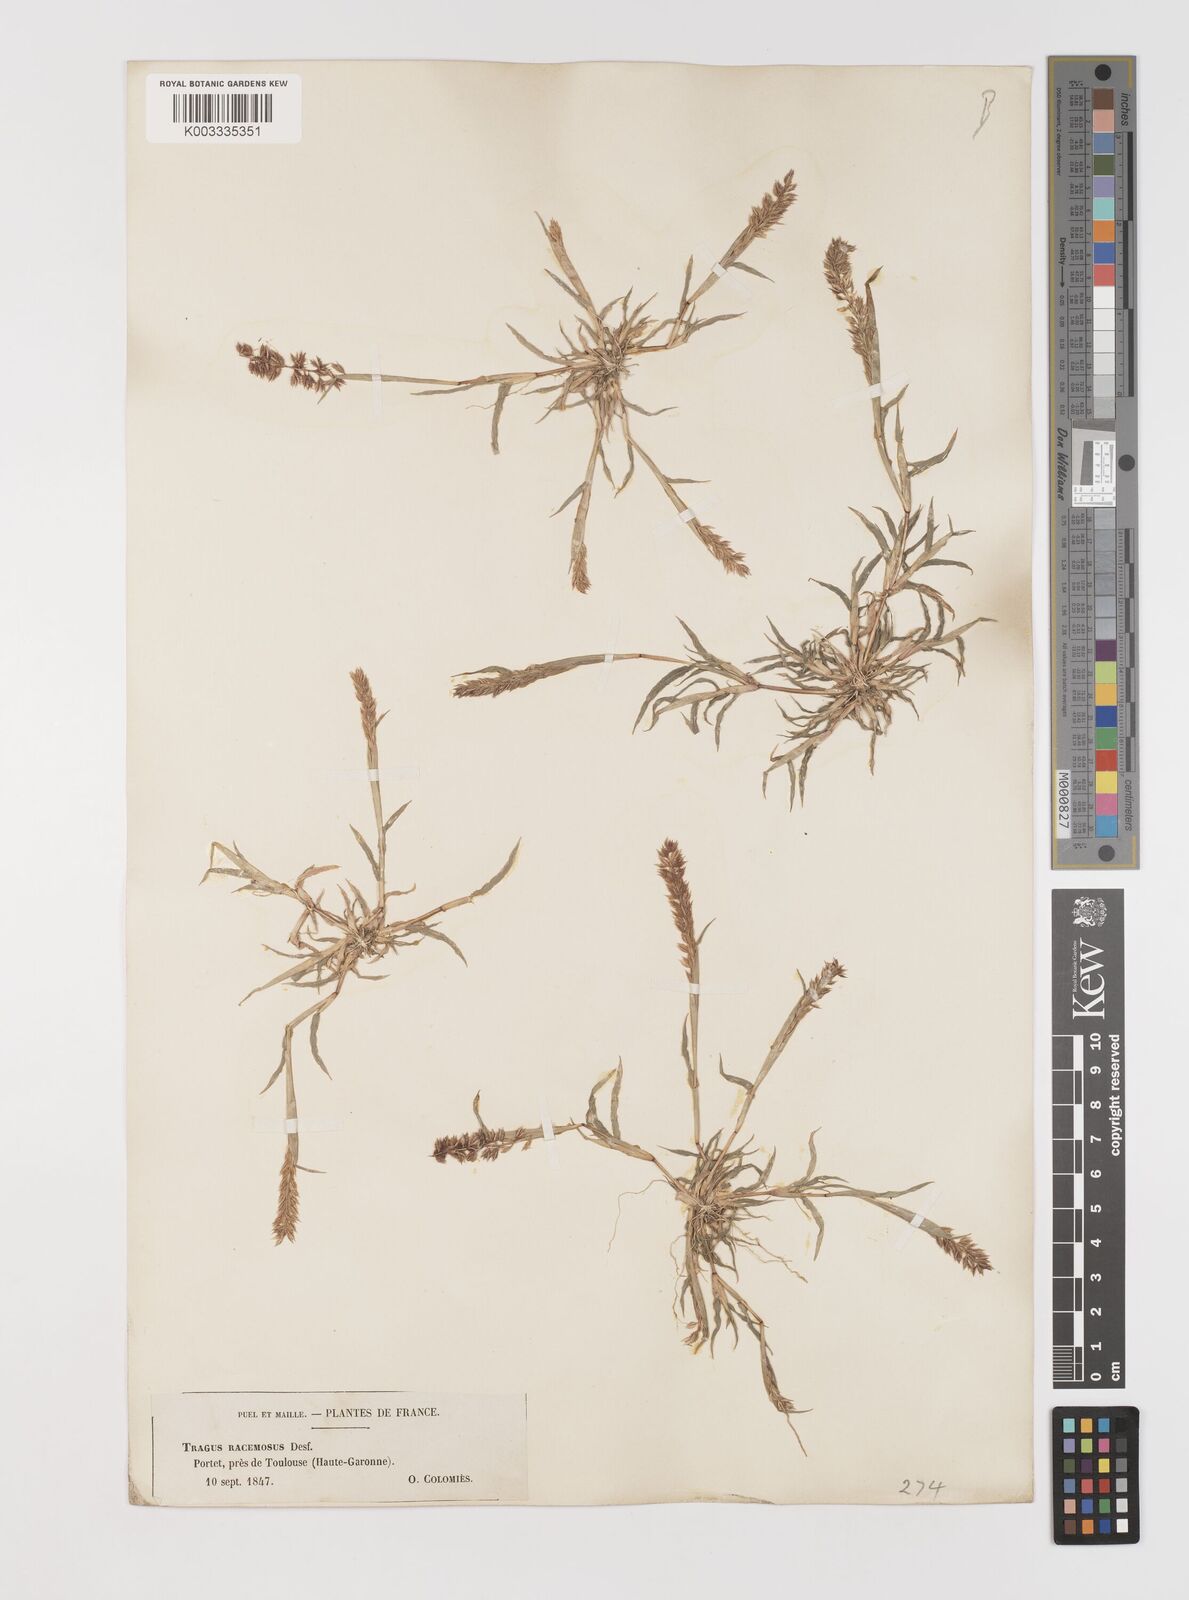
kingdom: Plantae
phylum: Tracheophyta
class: Liliopsida
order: Poales
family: Poaceae
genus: Tragus
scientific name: Tragus racemosus
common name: European bur-grass
